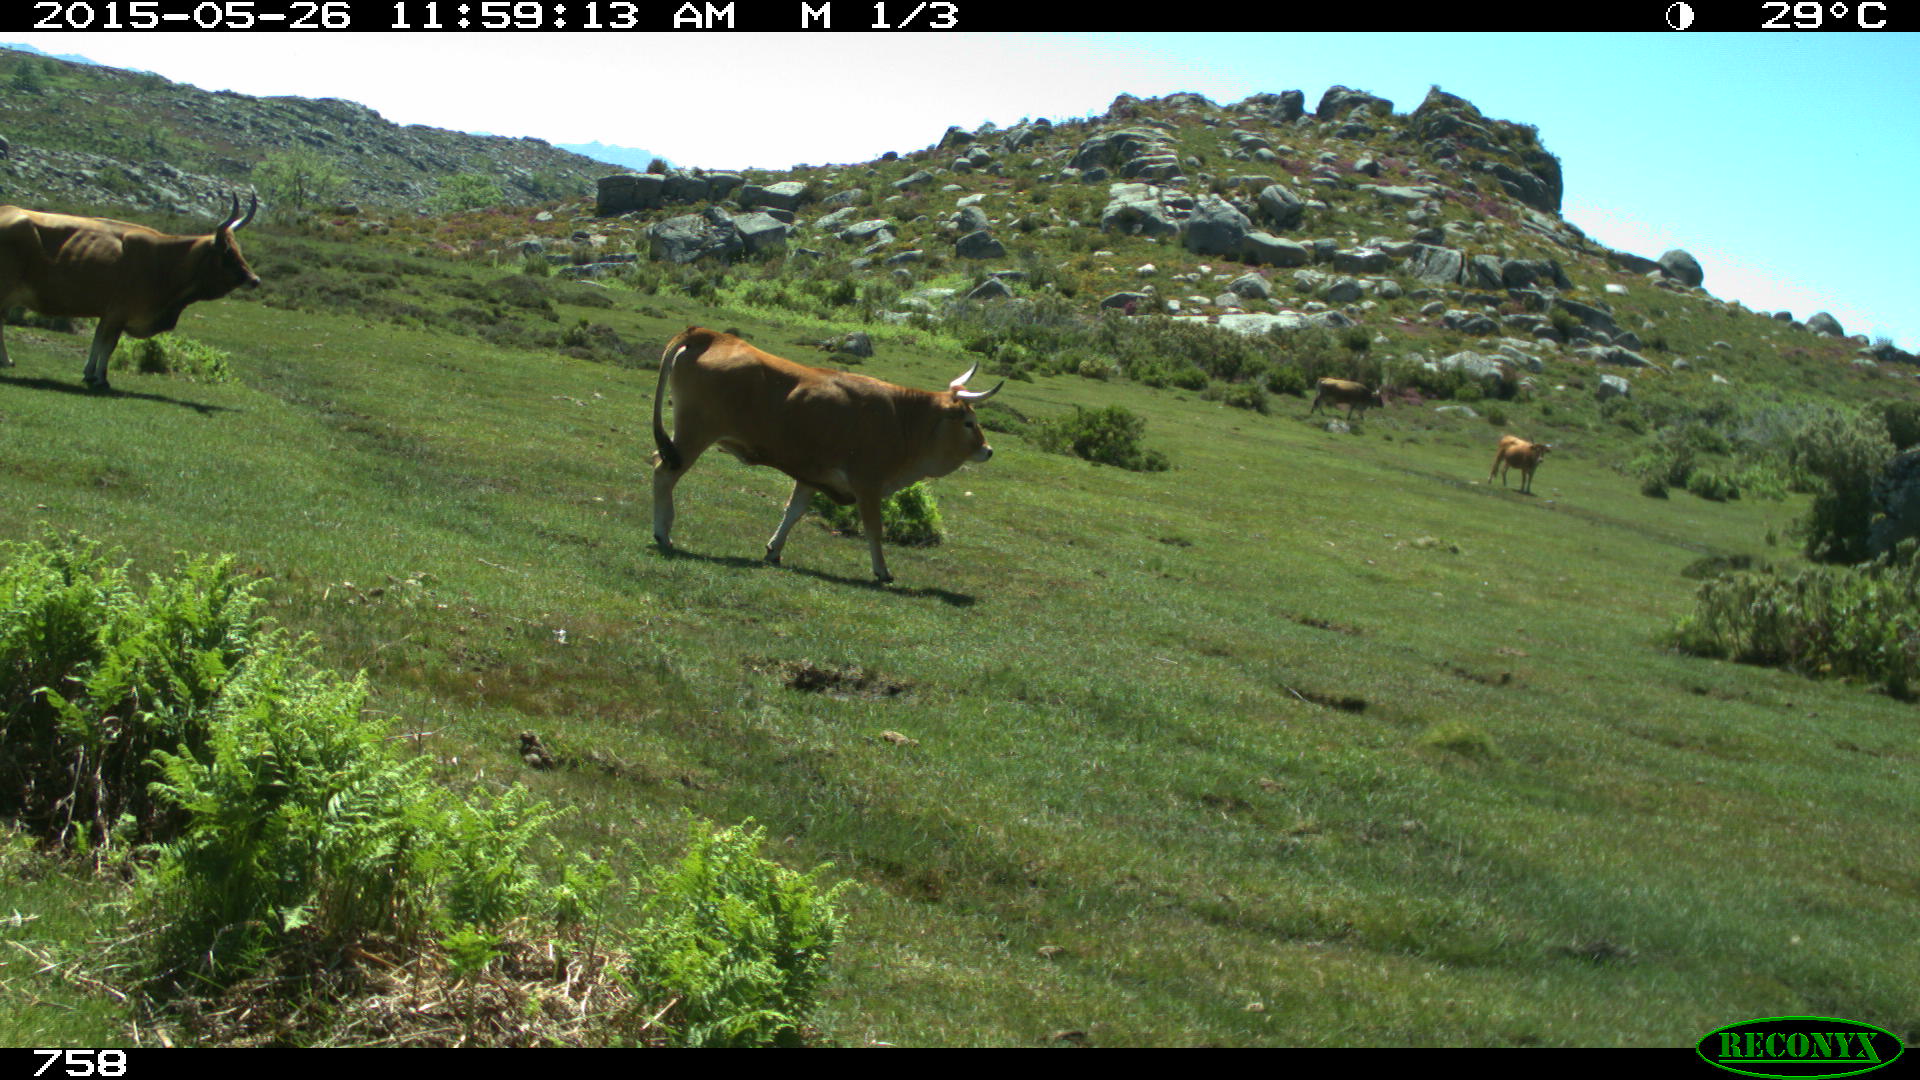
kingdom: Animalia
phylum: Chordata
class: Mammalia
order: Artiodactyla
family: Bovidae
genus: Bos
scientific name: Bos taurus
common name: Domesticated cattle
